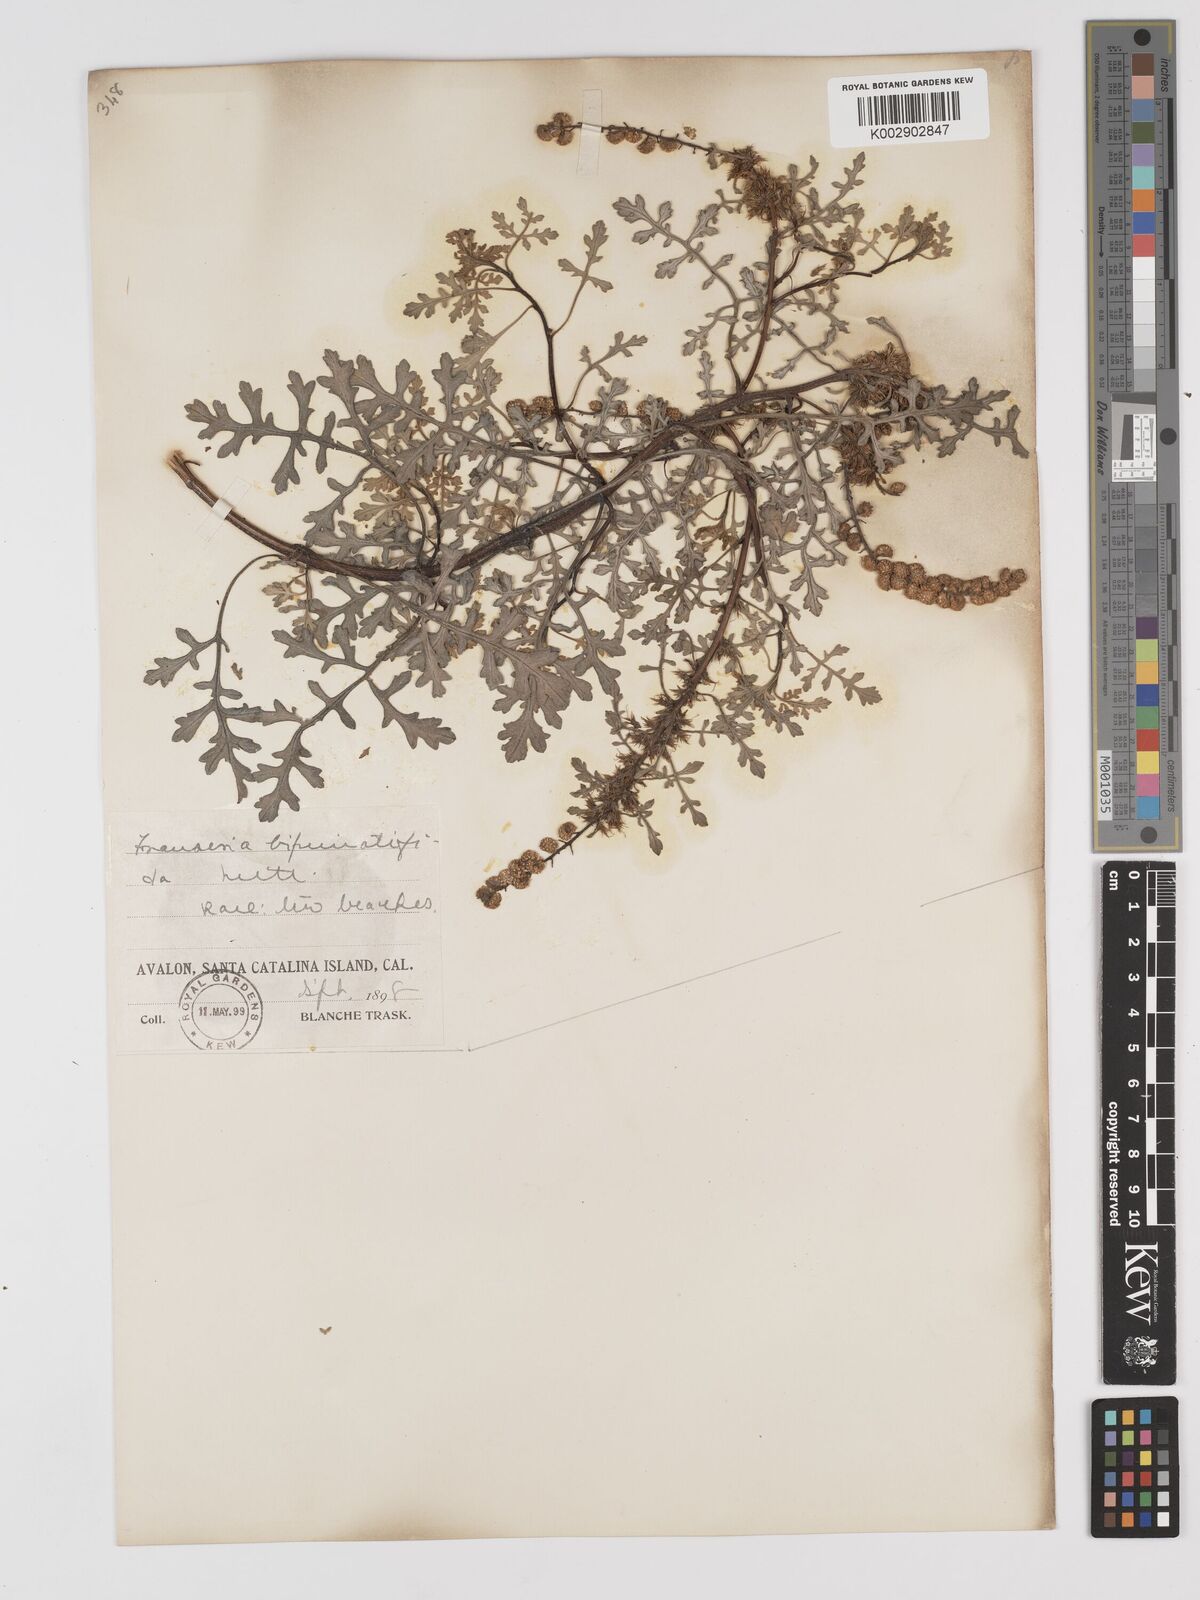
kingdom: Plantae
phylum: Tracheophyta
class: Magnoliopsida
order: Asterales
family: Asteraceae
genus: Ambrosia
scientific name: Ambrosia camphorata
